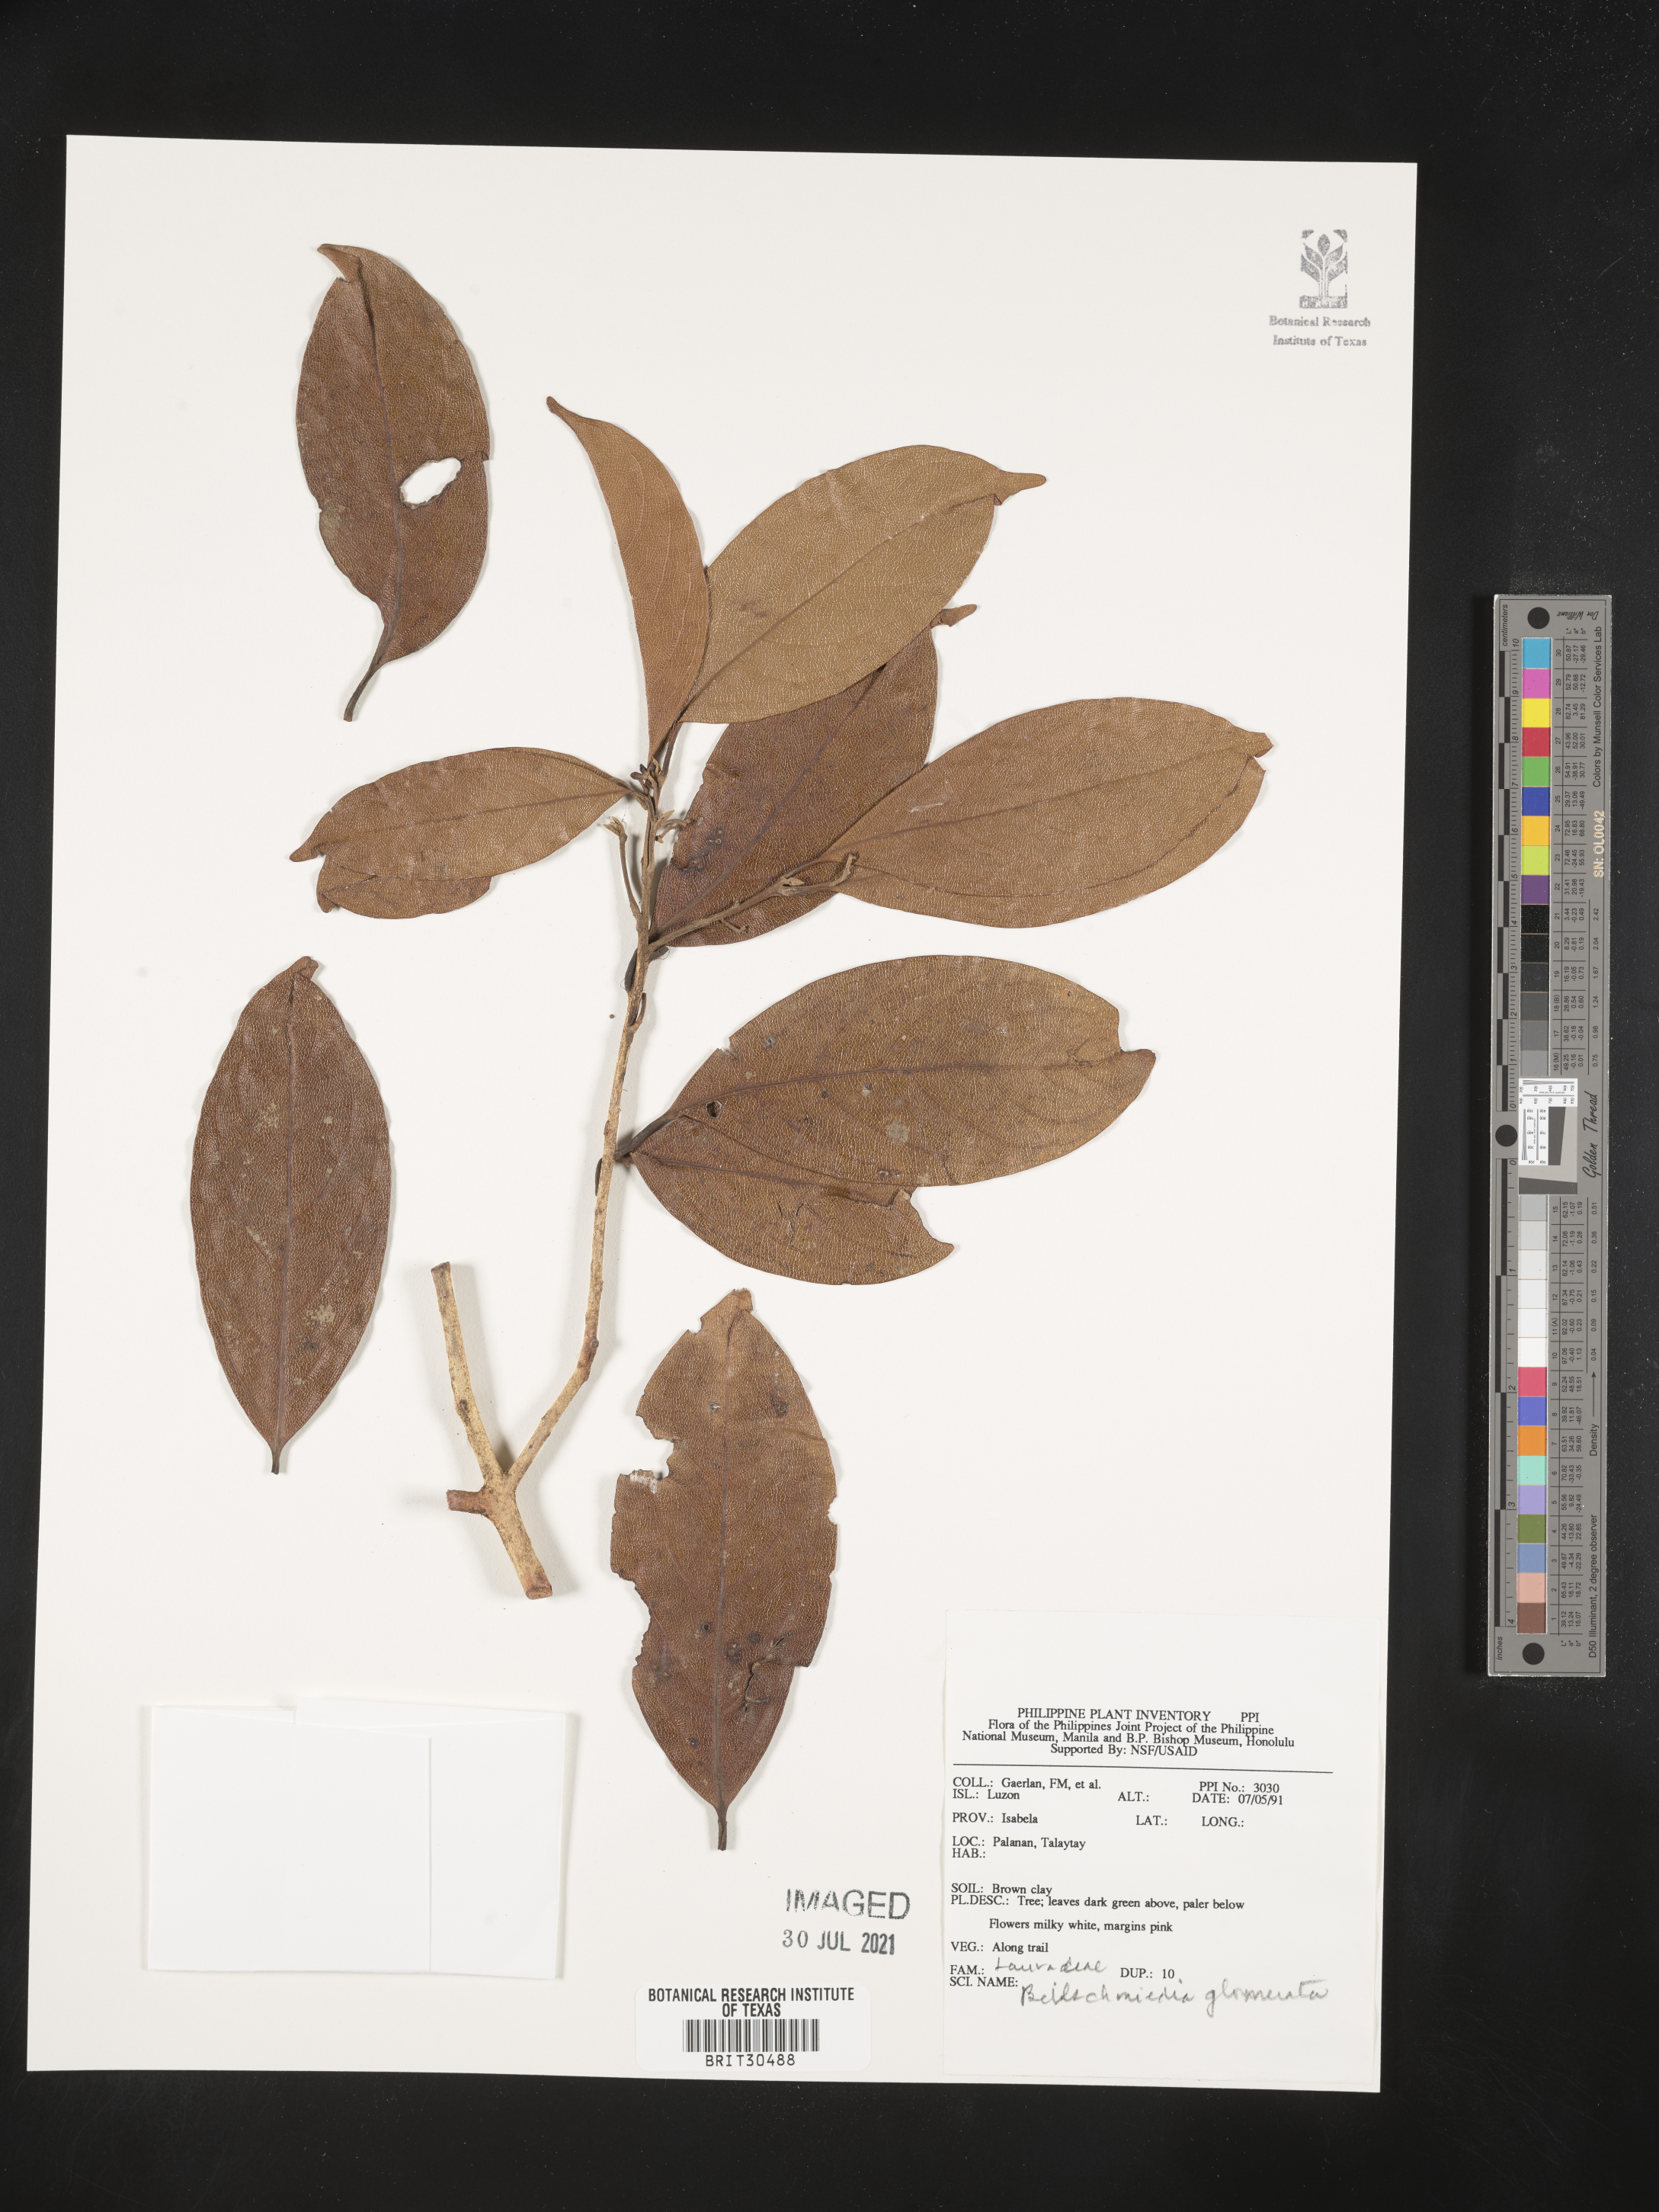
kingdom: Plantae
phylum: Tracheophyta
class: Magnoliopsida
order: Laurales
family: Lauraceae
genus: Beilschmiedia
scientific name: Beilschmiedia gemmiflora
